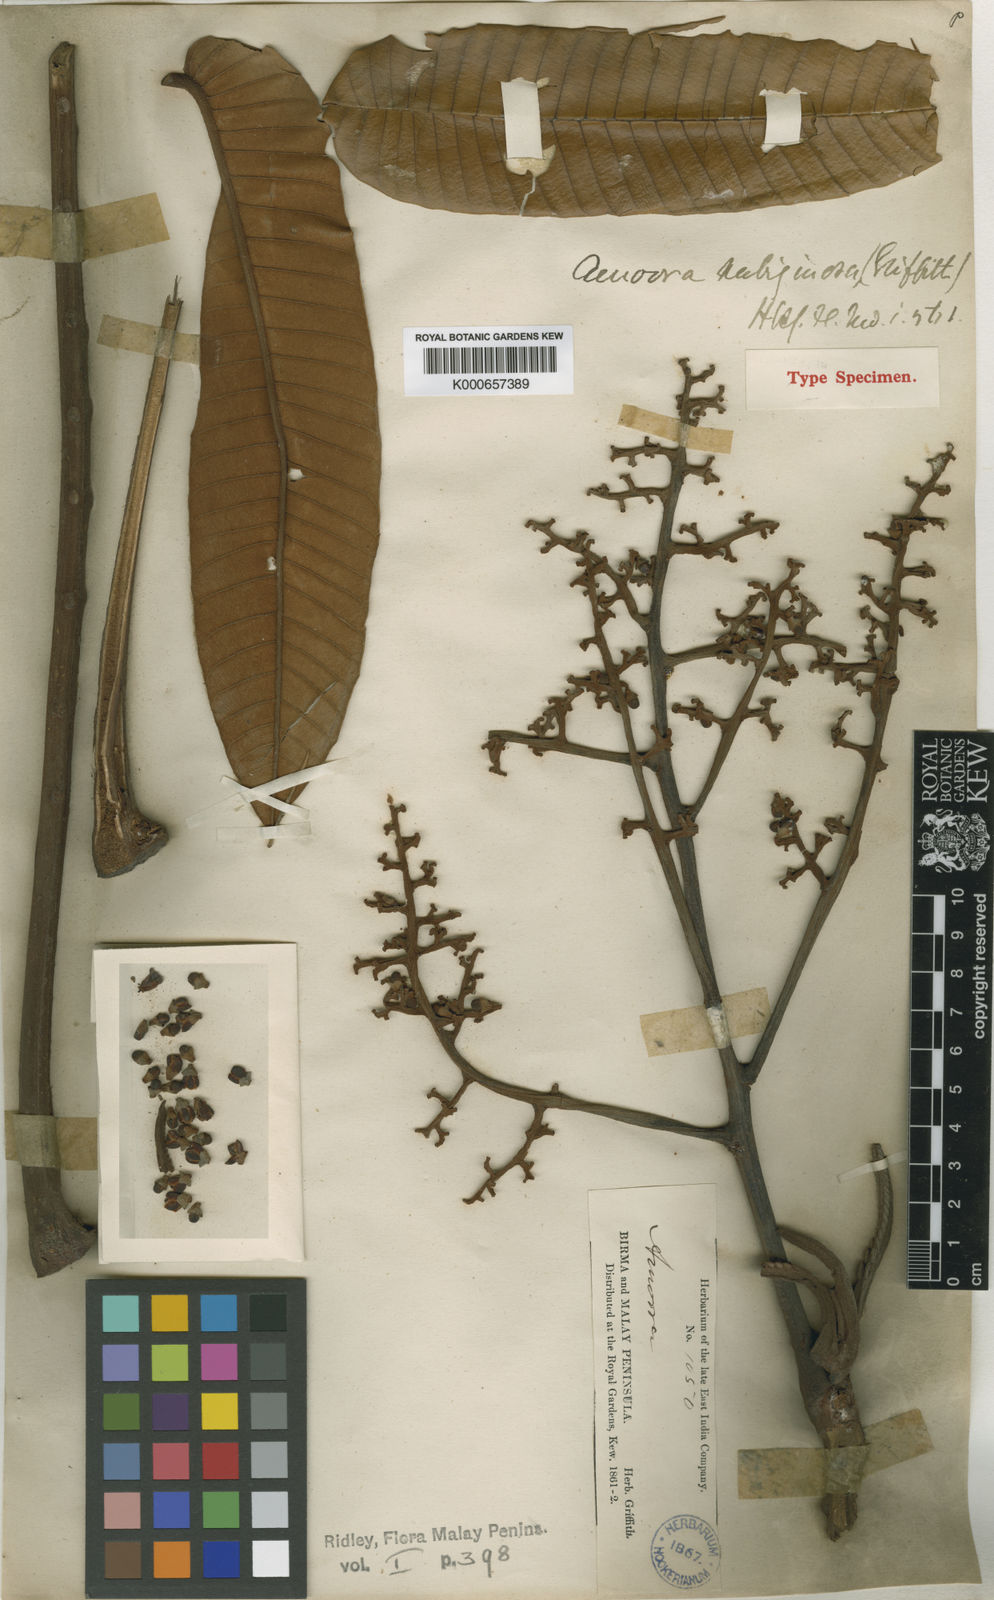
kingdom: Plantae
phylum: Tracheophyta
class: Magnoliopsida
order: Sapindales
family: Meliaceae
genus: Aglaia
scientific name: Aglaia rubiginosa
